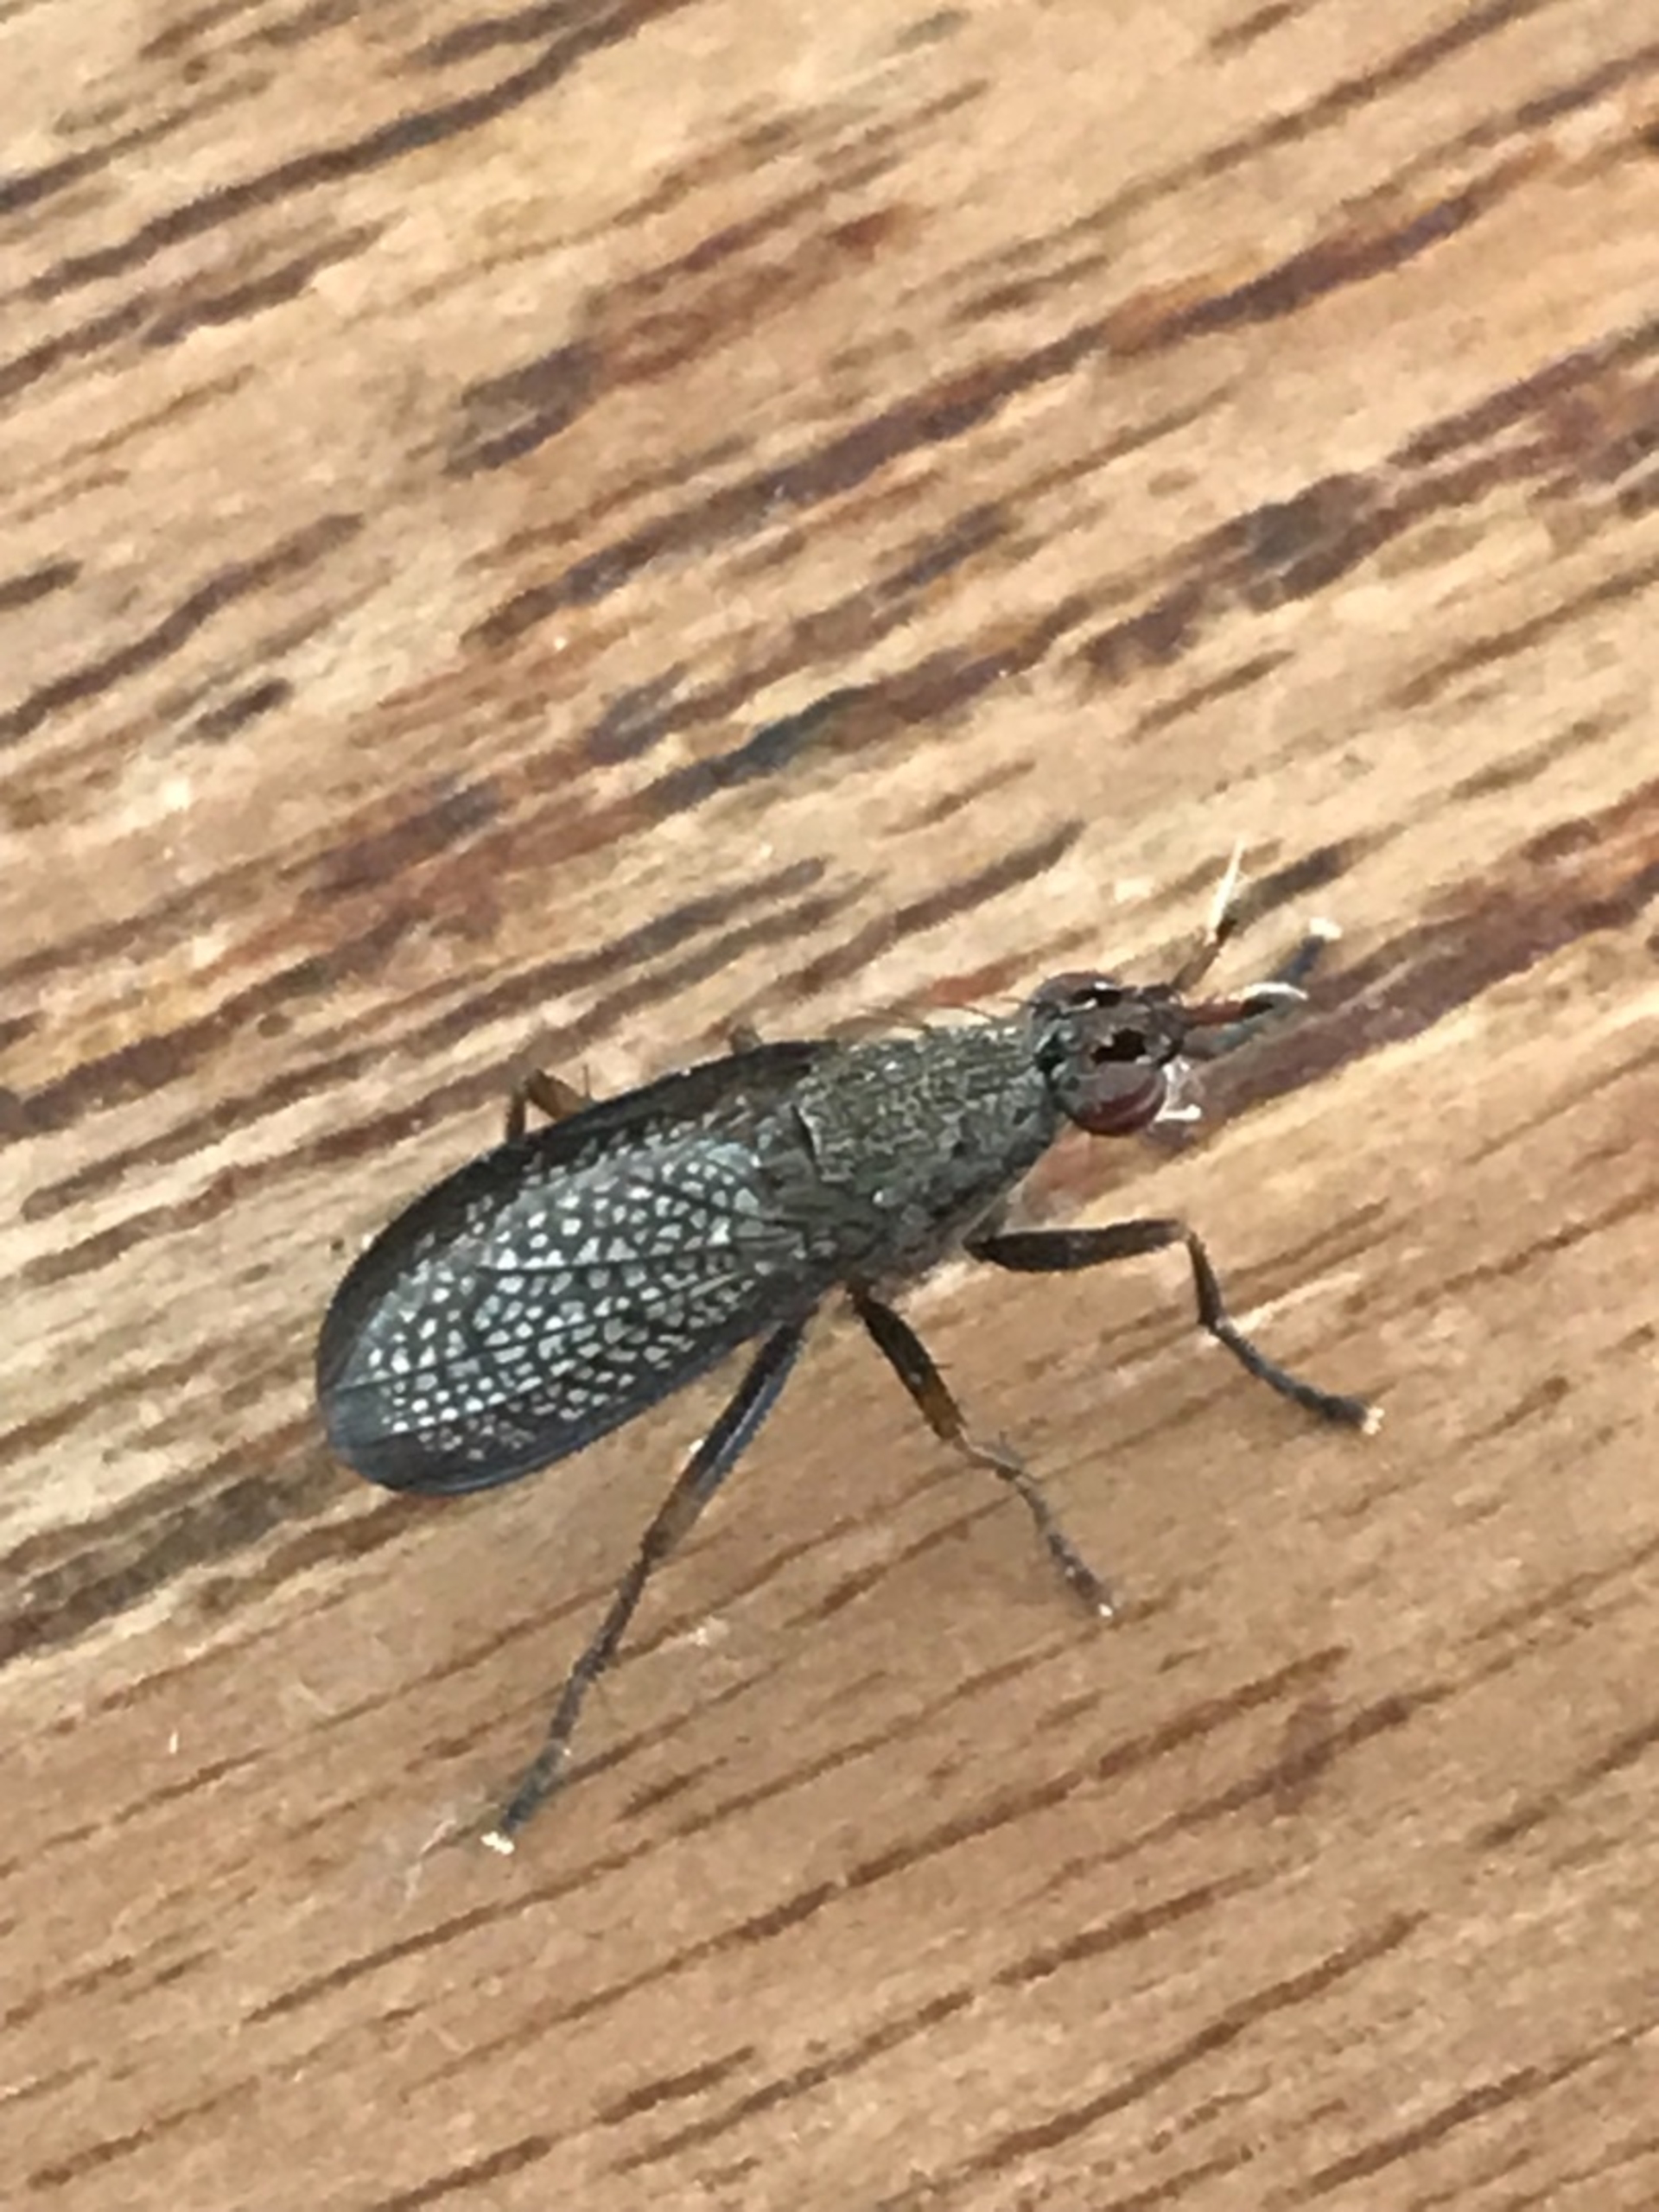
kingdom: Animalia
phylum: Arthropoda
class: Insecta
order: Diptera
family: Sciomyzidae
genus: Coremacera
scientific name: Coremacera marginata
